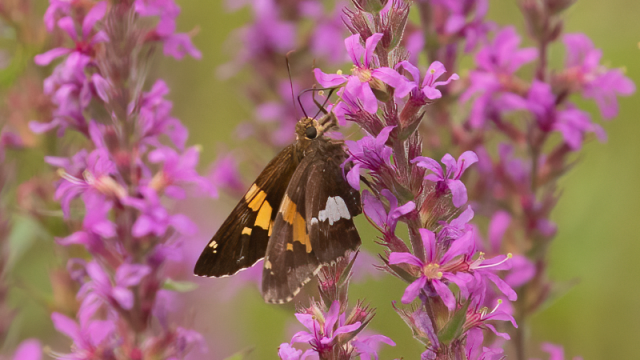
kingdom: Animalia
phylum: Arthropoda
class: Insecta
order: Lepidoptera
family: Hesperiidae
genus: Epargyreus
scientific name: Epargyreus clarus
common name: Silver-spotted Skipper
